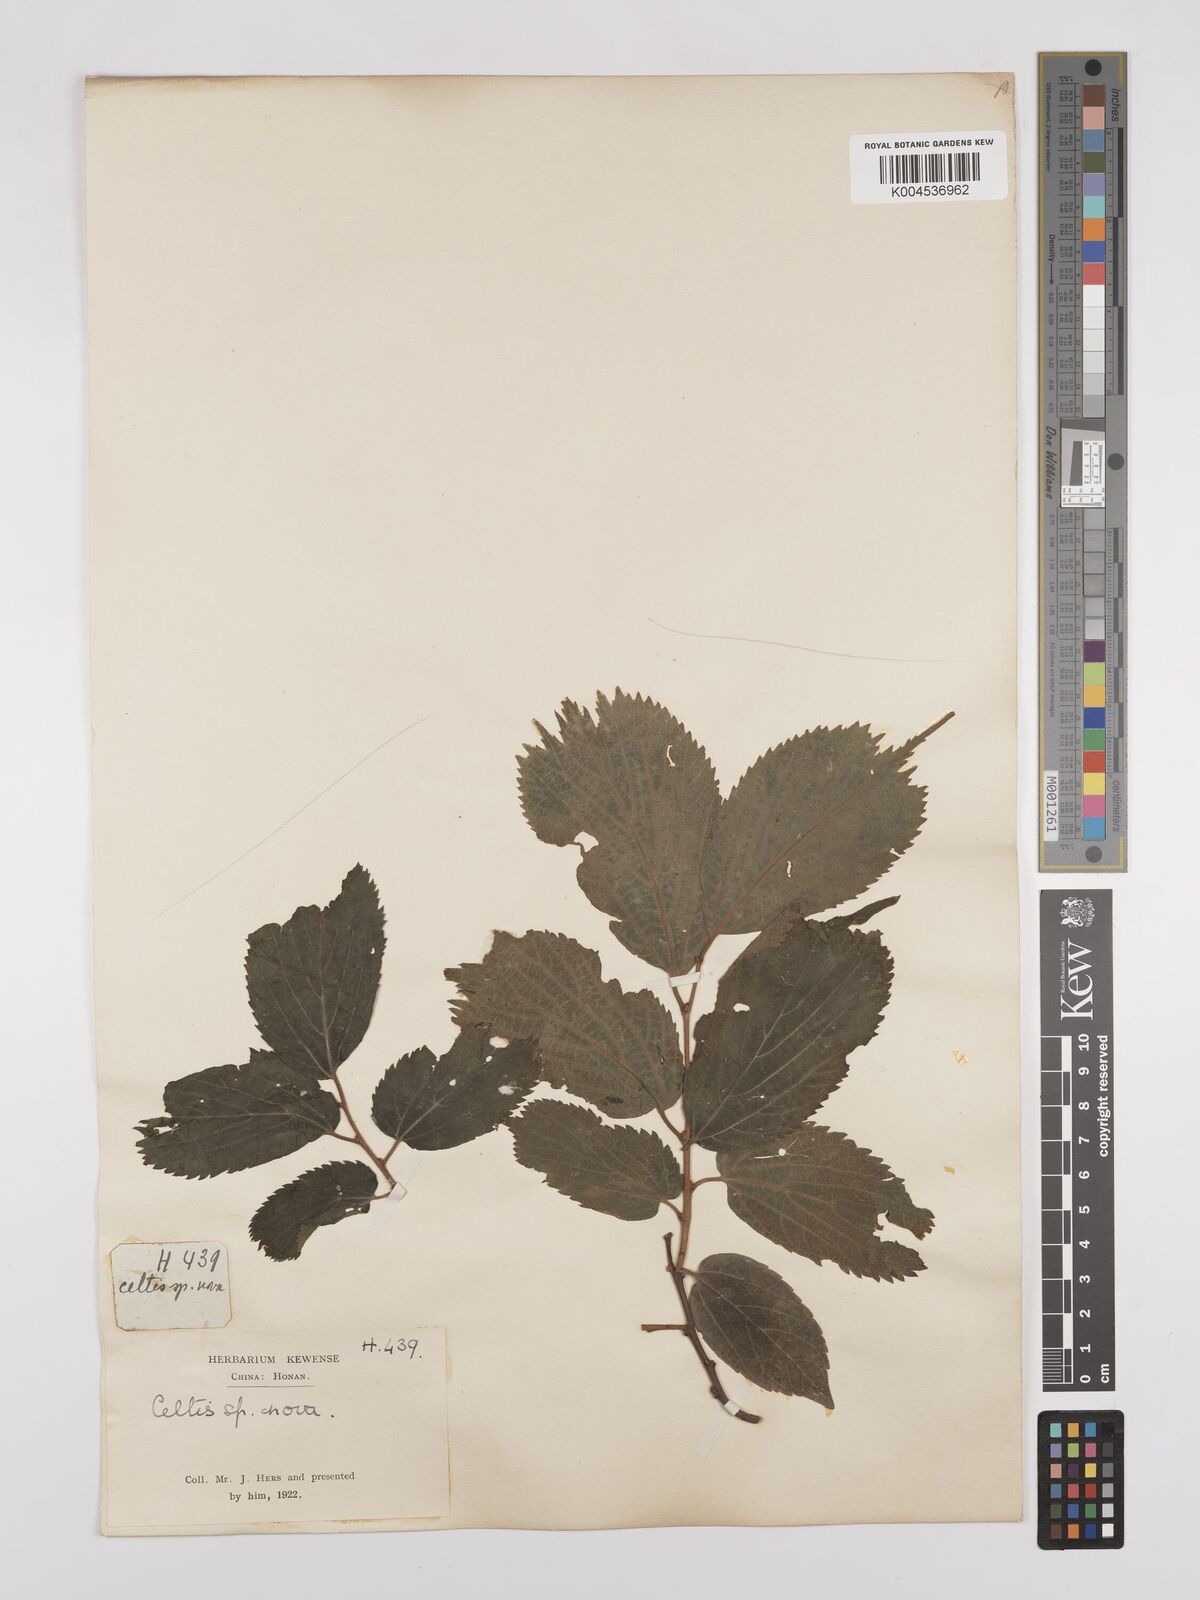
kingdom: Plantae
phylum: Tracheophyta
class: Magnoliopsida
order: Rosales
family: Cannabaceae
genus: Celtis
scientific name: Celtis koraiensis
